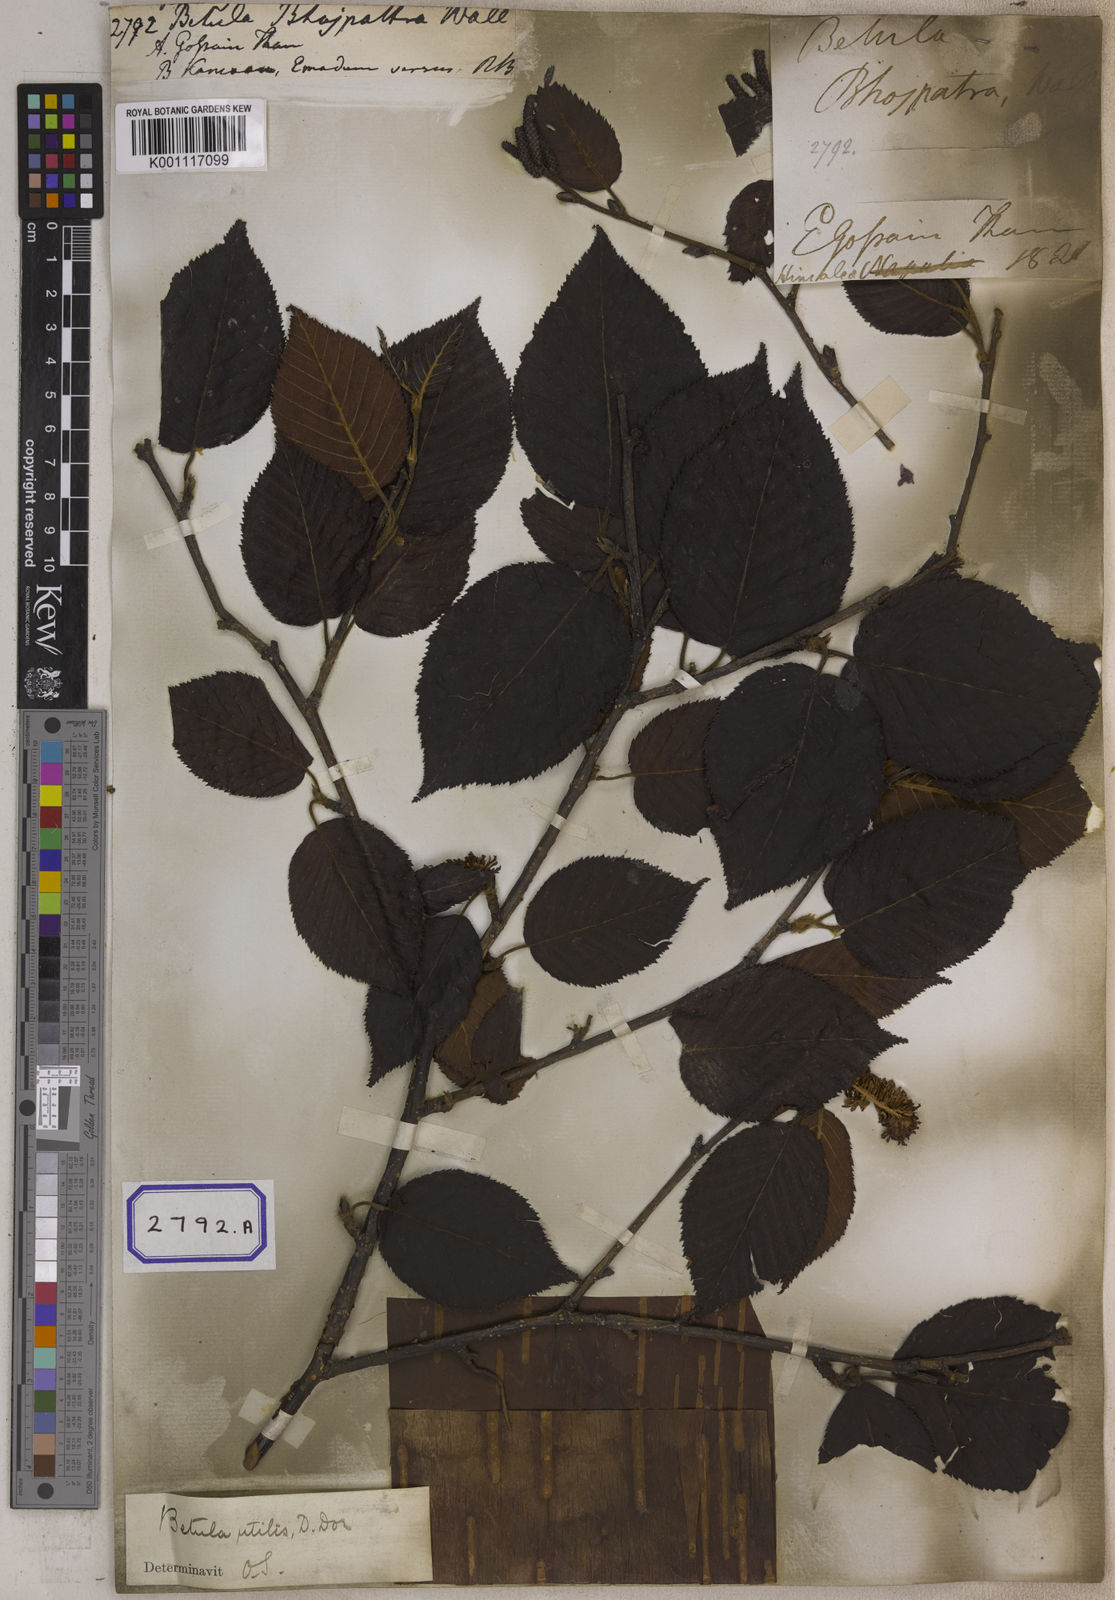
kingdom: Plantae
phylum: Tracheophyta
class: Magnoliopsida
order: Fagales
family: Betulaceae
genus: Betula
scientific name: Betula utilis
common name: Himalayan birch
